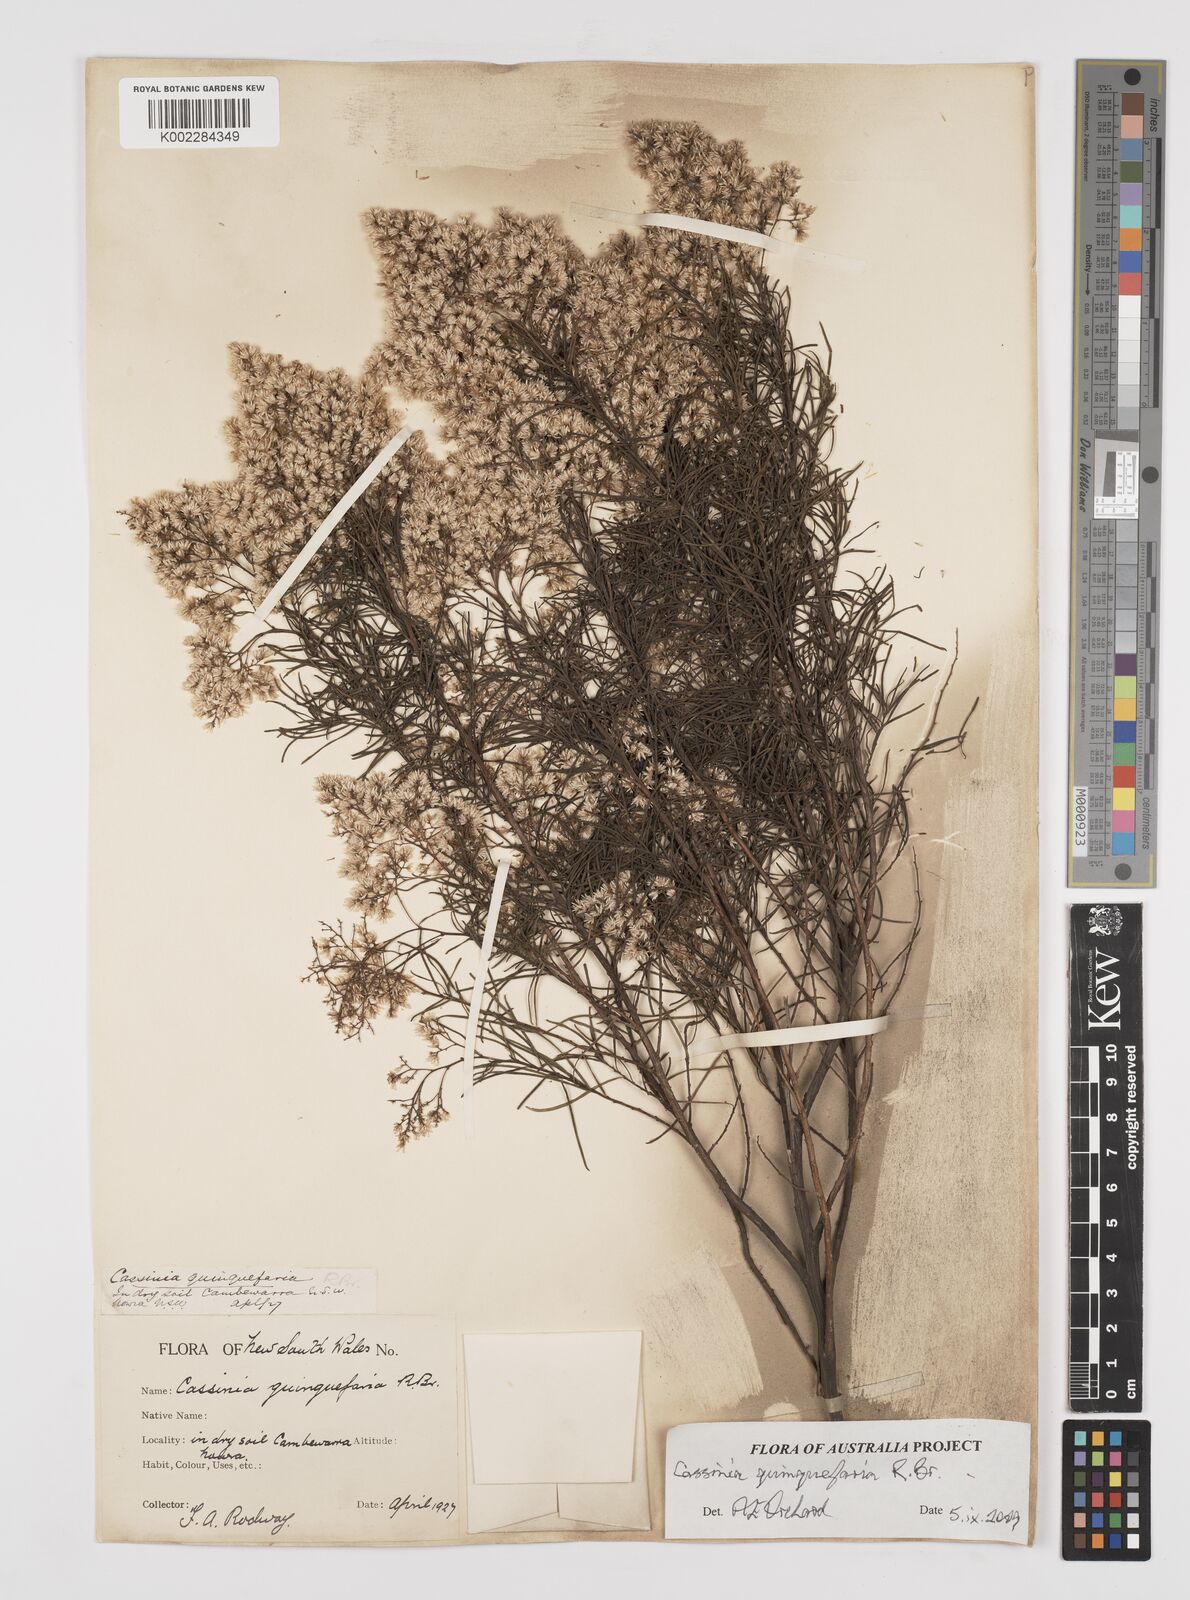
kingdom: Plantae
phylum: Tracheophyta
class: Magnoliopsida
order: Asterales
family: Asteraceae
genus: Cassinia
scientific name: Cassinia quinquefaria
